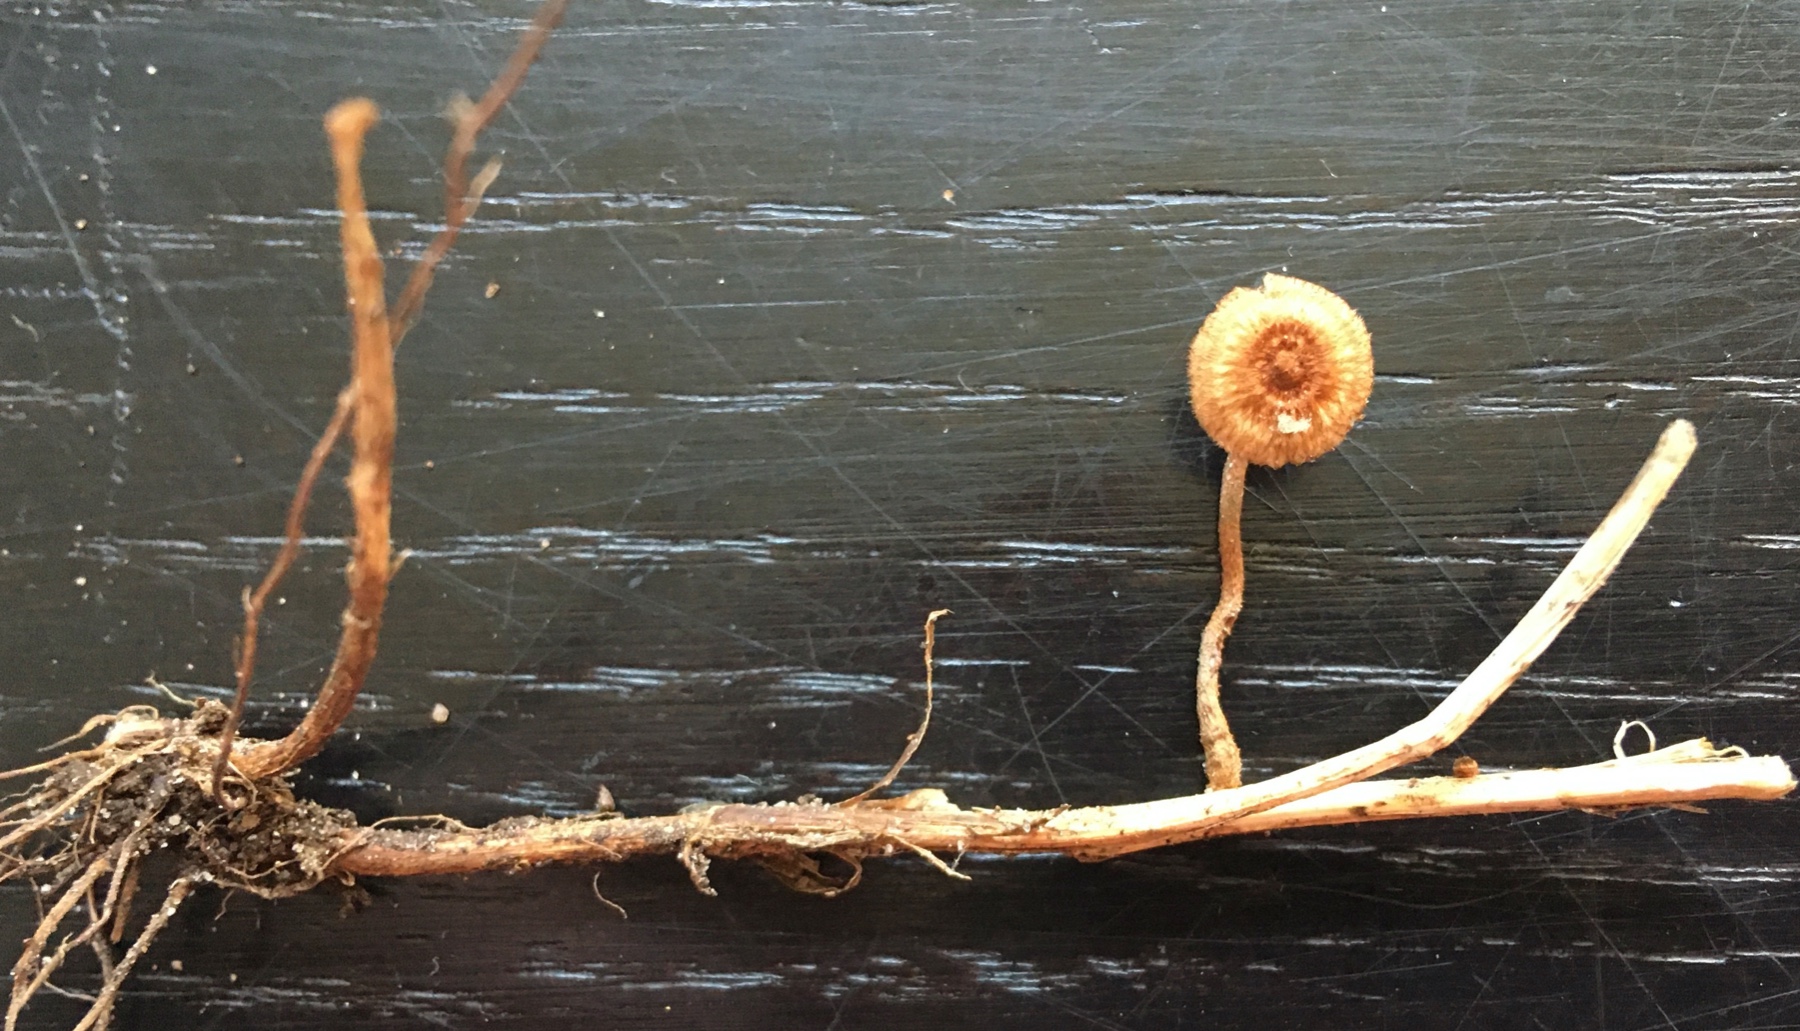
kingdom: Fungi
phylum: Basidiomycota
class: Agaricomycetes
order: Agaricales
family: Marasmiaceae
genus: Crinipellis
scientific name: Crinipellis scabella
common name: børstefod
